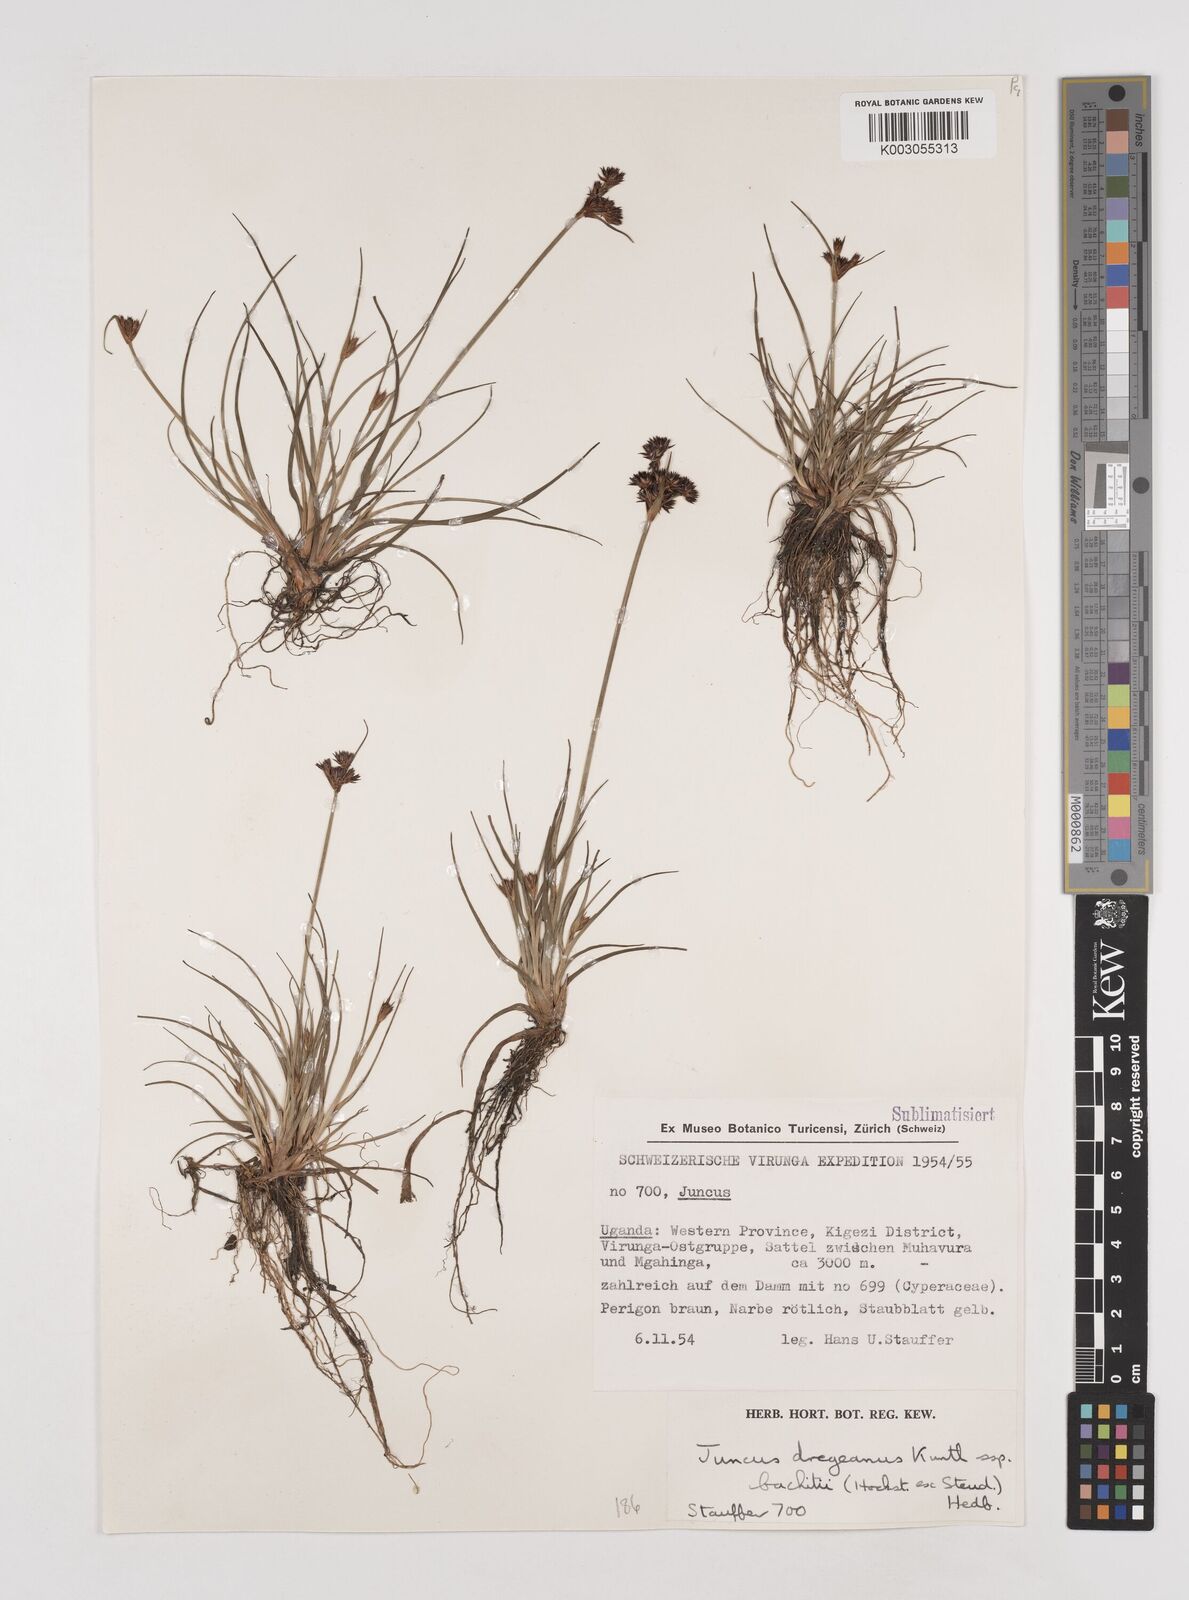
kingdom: Plantae
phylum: Tracheophyta
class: Liliopsida
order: Poales
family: Juncaceae
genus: Juncus
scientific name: Juncus dregeanus
